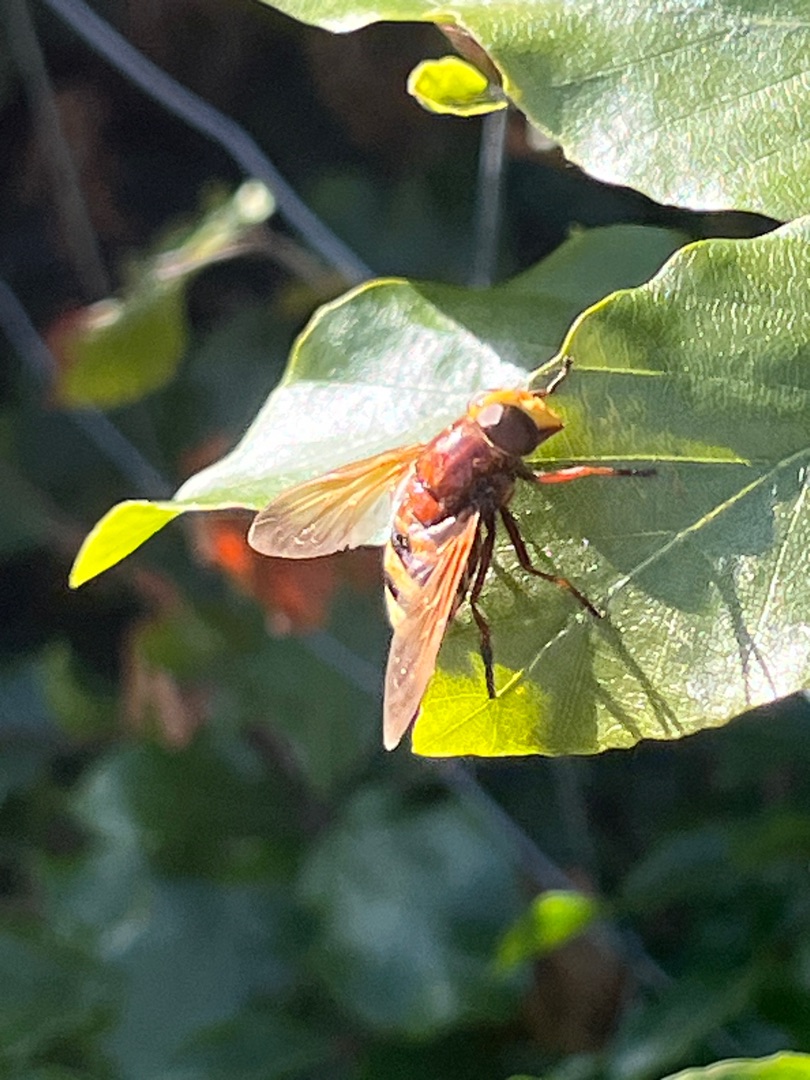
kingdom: Animalia
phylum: Arthropoda
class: Insecta
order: Diptera
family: Syrphidae
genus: Volucella
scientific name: Volucella zonaria
